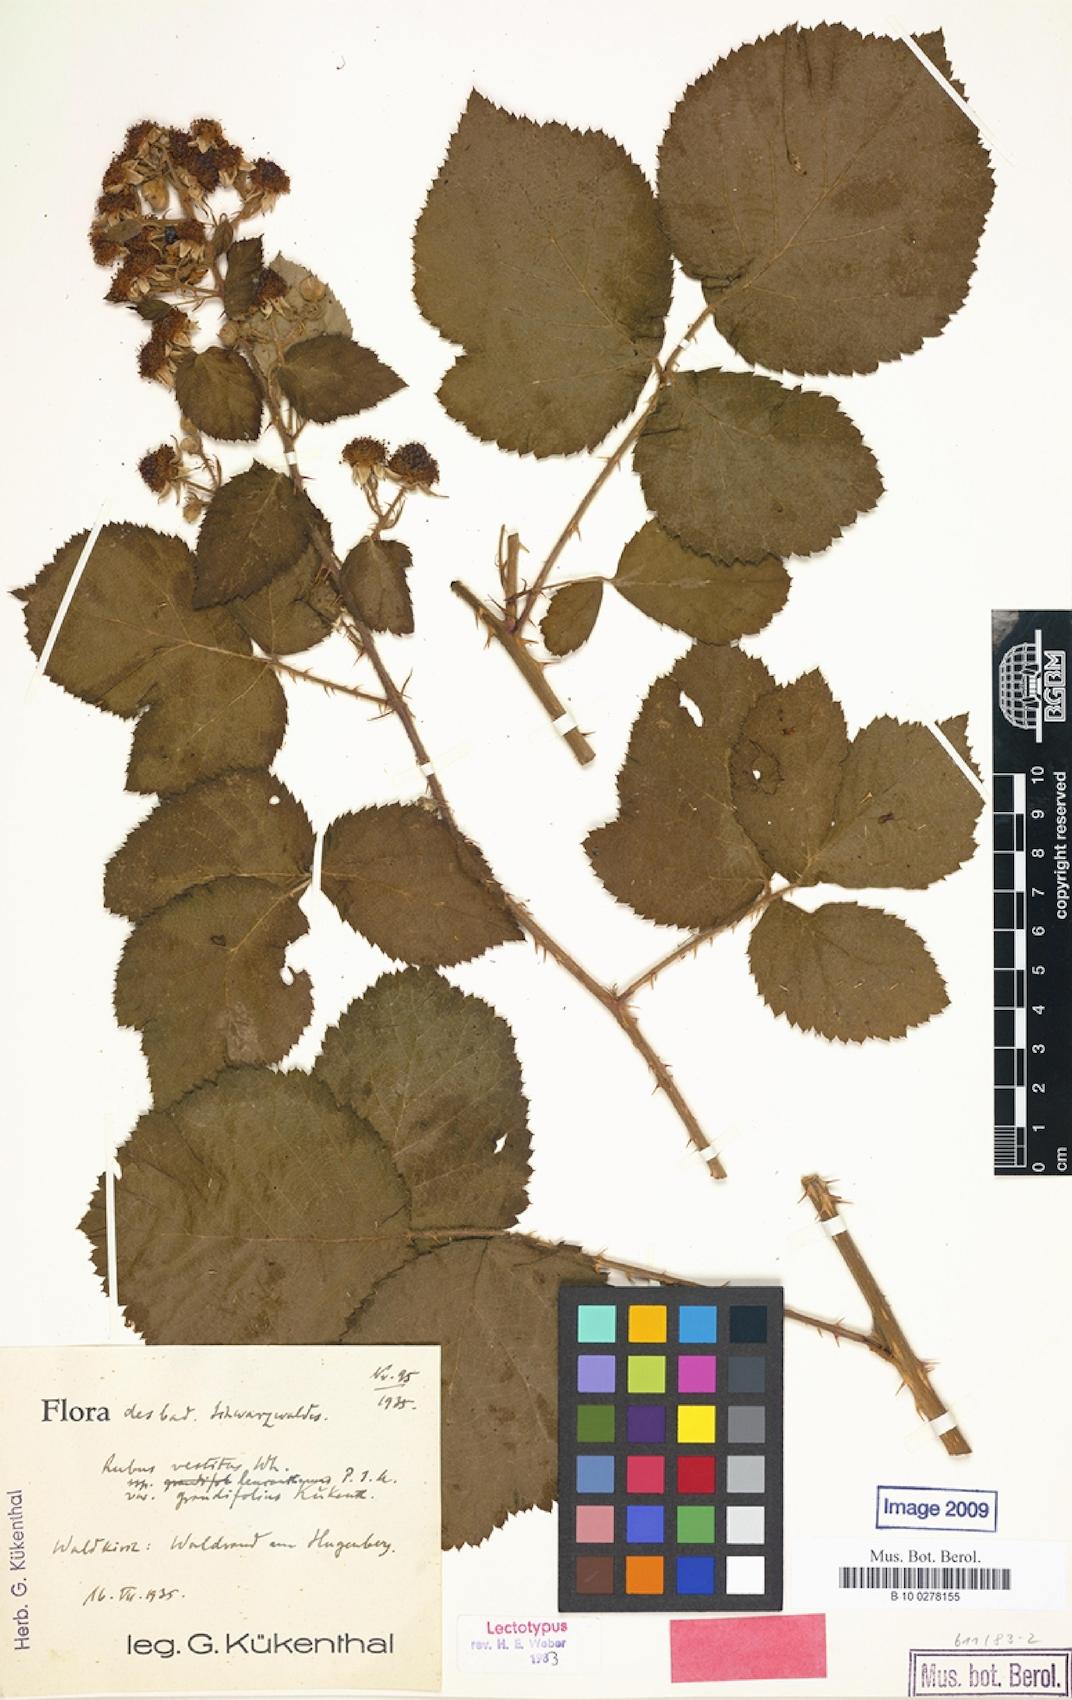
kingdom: Plantae
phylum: Tracheophyta
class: Magnoliopsida
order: Rosales
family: Rosaceae
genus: Rubus
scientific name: Rubus vestitus
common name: European blackberry
